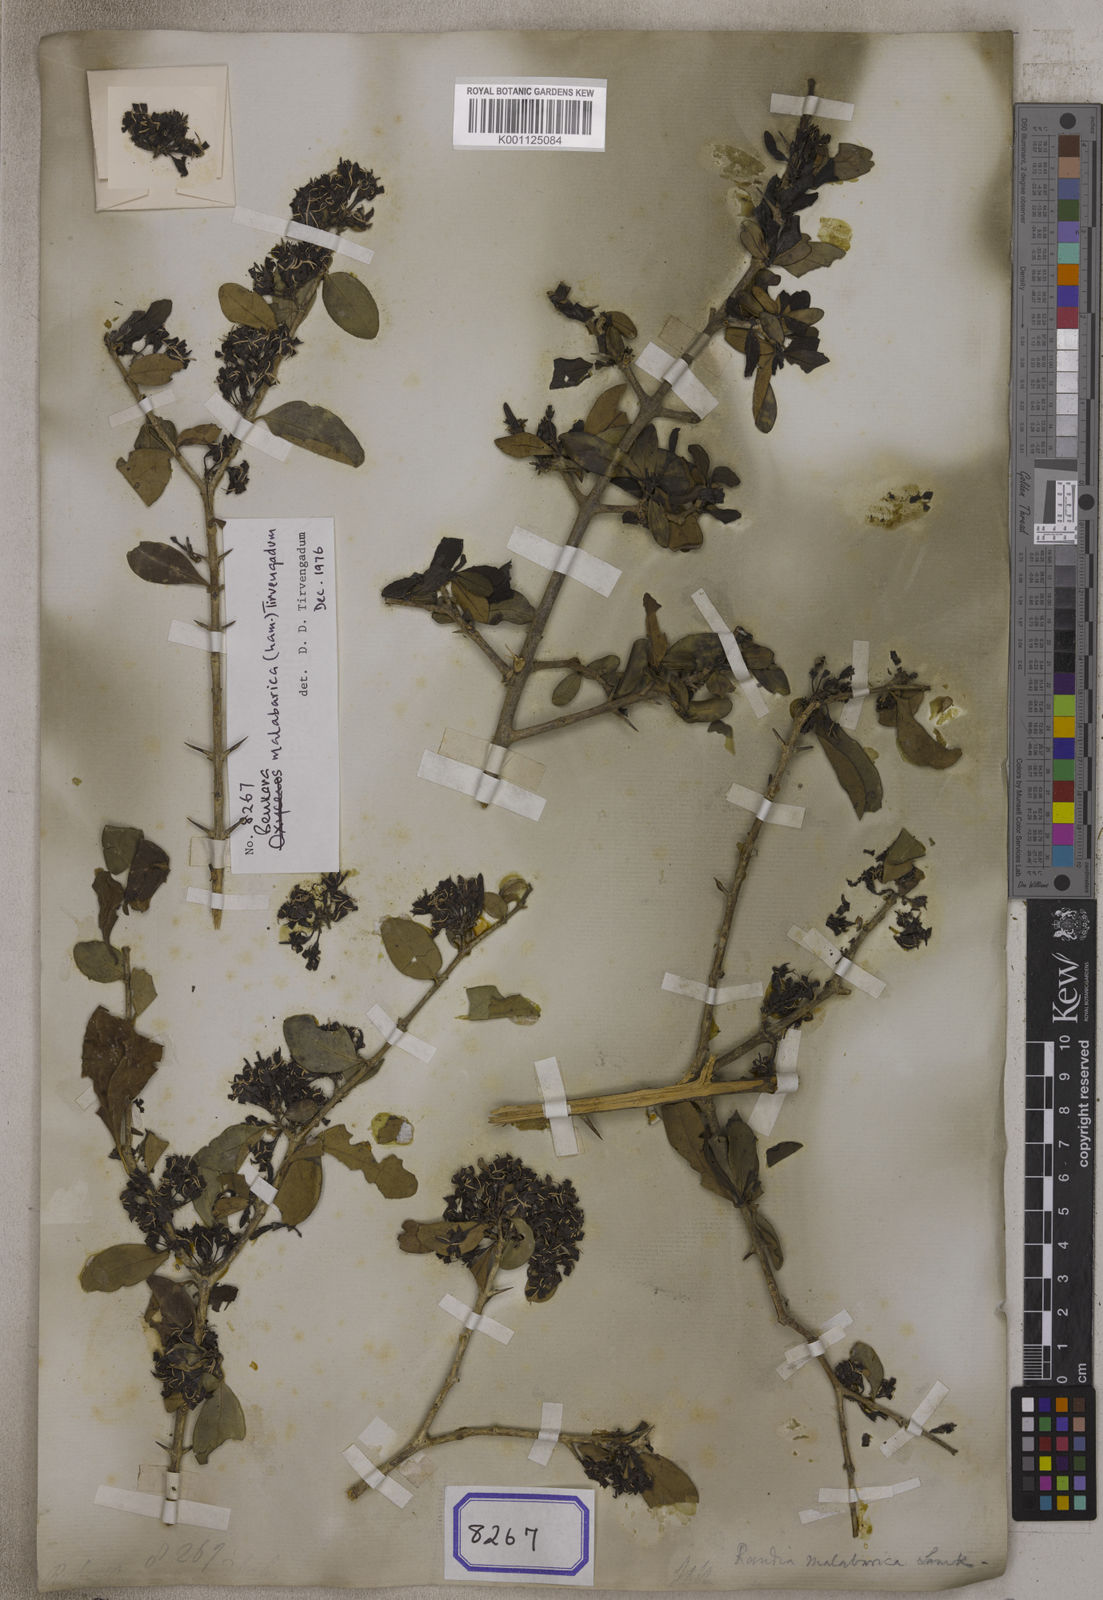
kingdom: Plantae
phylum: Tracheophyta
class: Magnoliopsida
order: Gentianales
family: Rubiaceae
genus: Benkara
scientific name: Benkara malabarica
